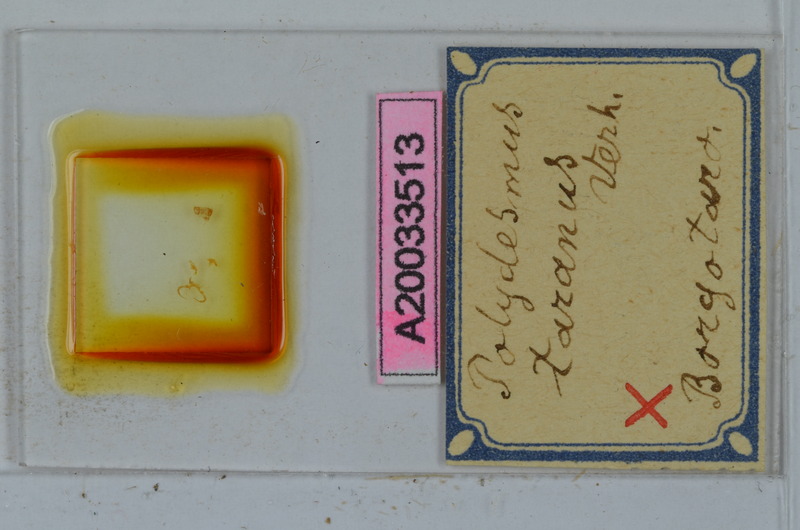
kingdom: Animalia
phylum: Arthropoda
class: Diplopoda
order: Polydesmida
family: Polydesmidae
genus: Polydesmus
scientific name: Polydesmus taranus
